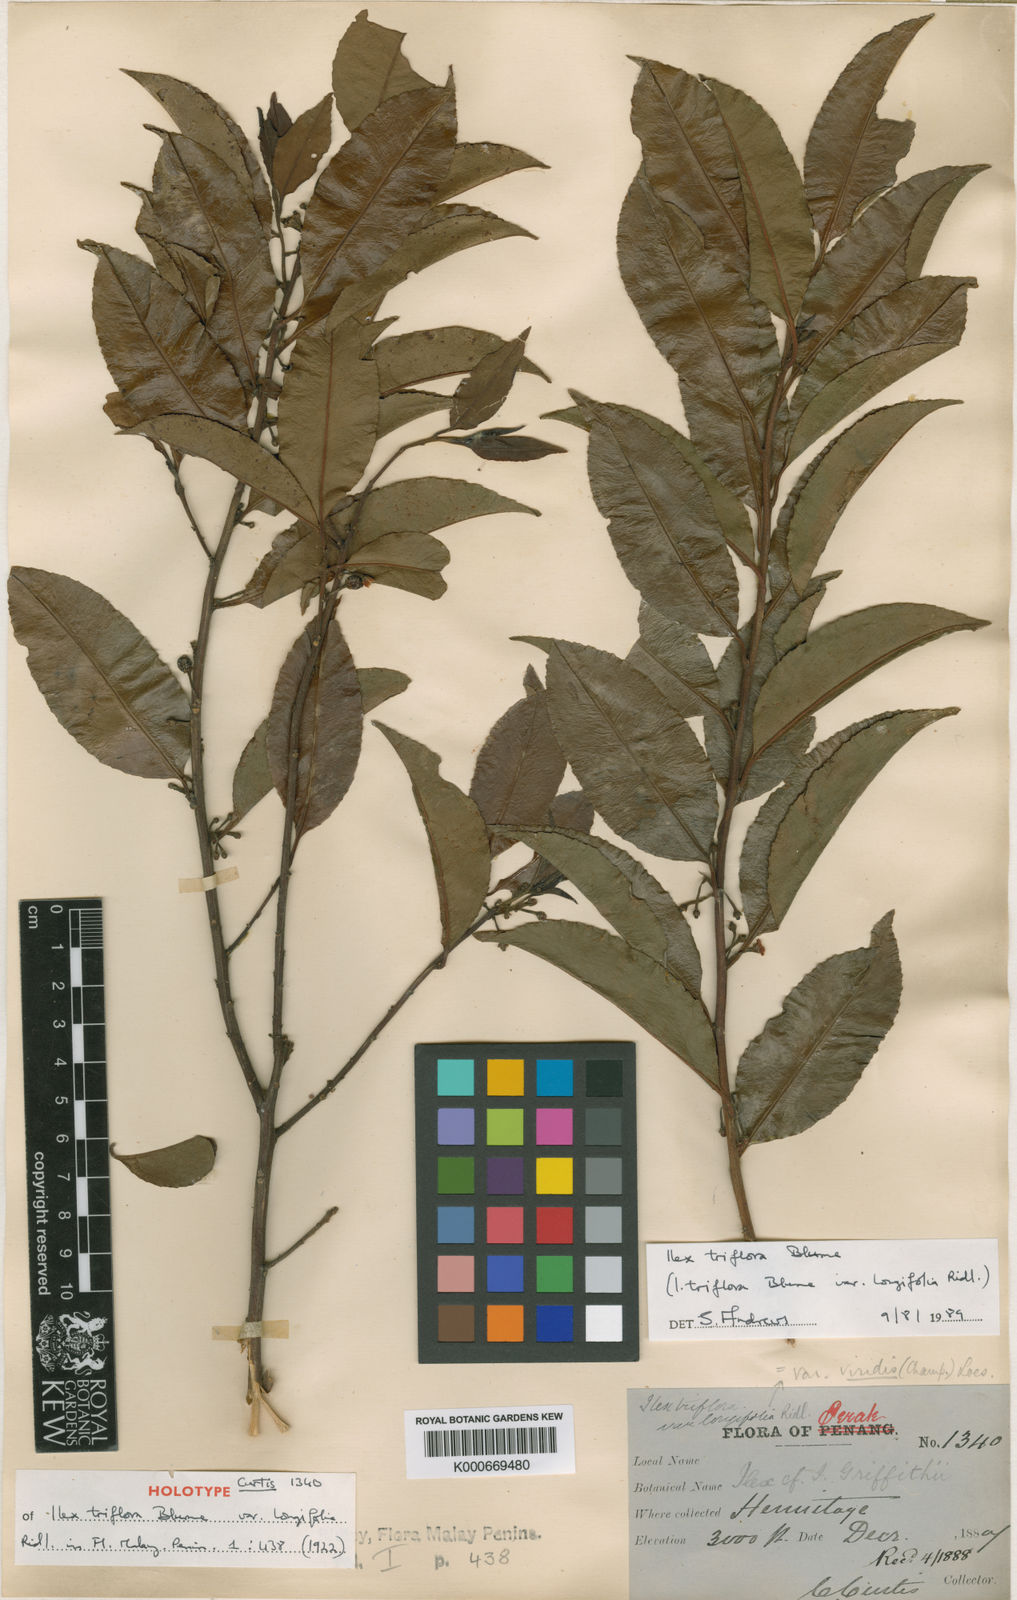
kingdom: Plantae
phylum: Tracheophyta
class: Magnoliopsida
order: Aquifoliales
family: Aquifoliaceae
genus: Ilex
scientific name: Ilex triflora
